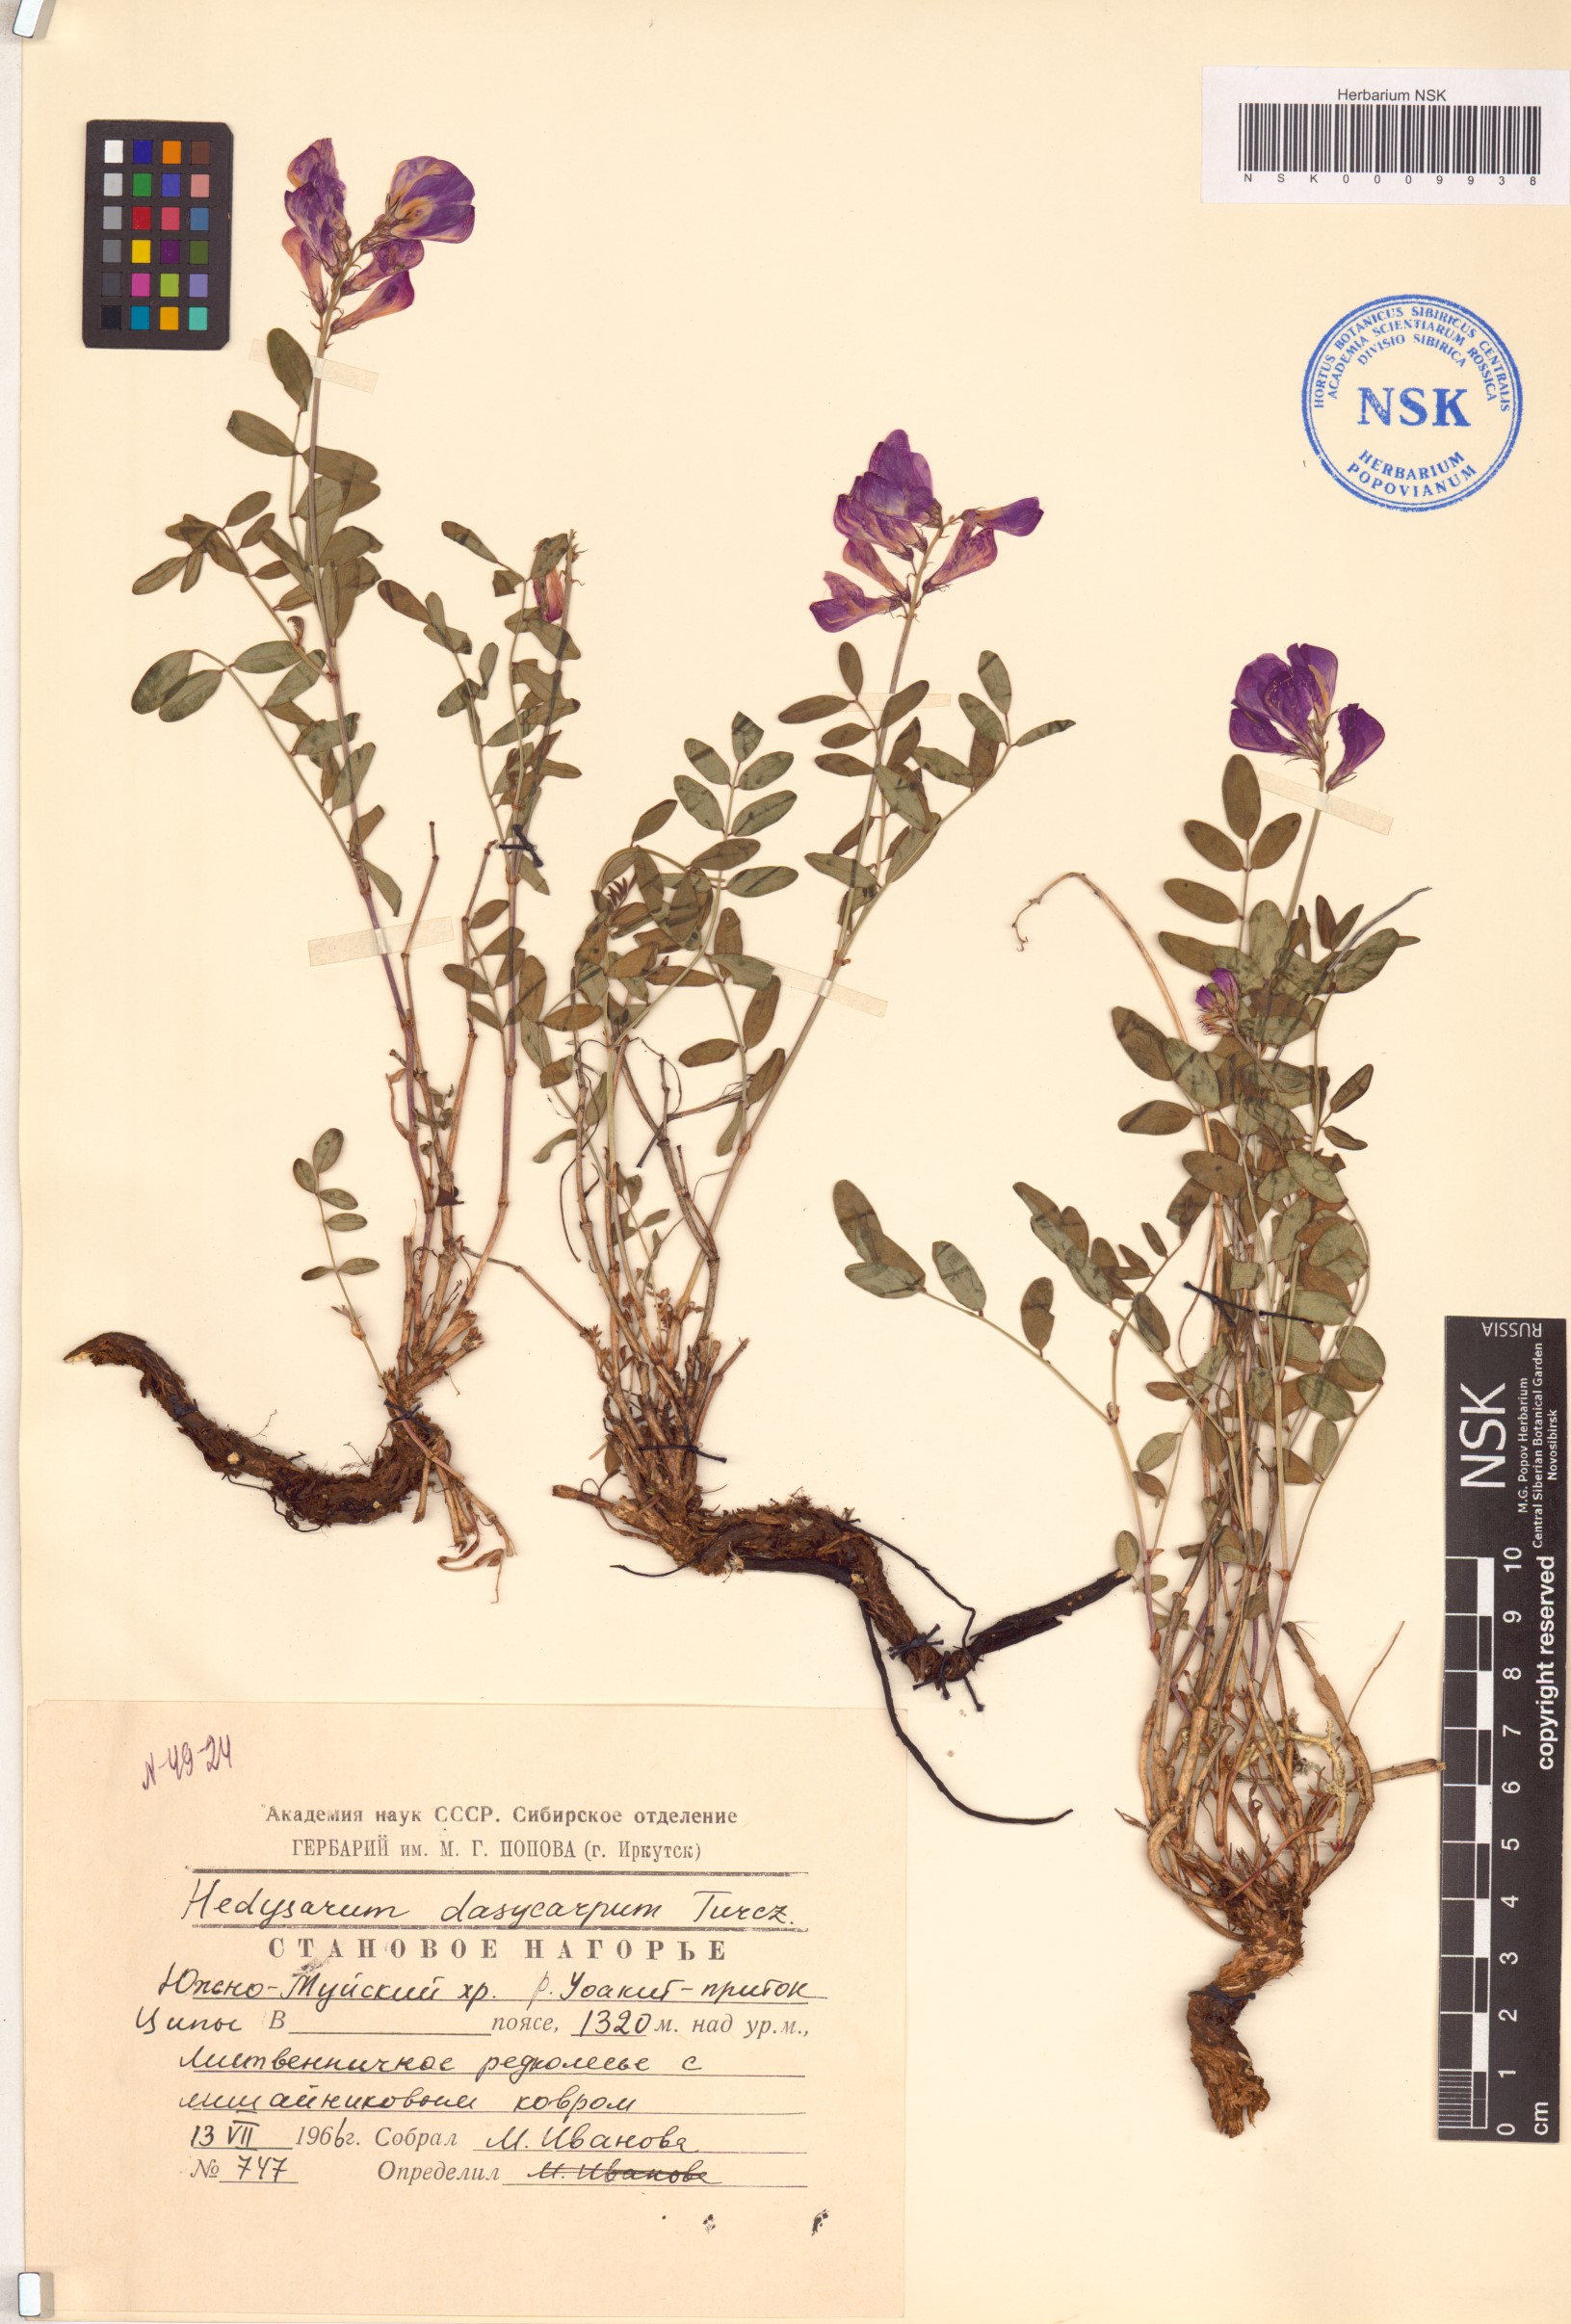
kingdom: Plantae
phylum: Tracheophyta
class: Magnoliopsida
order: Fabales
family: Fabaceae
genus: Hedysarum
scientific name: Hedysarum dasycarpum
